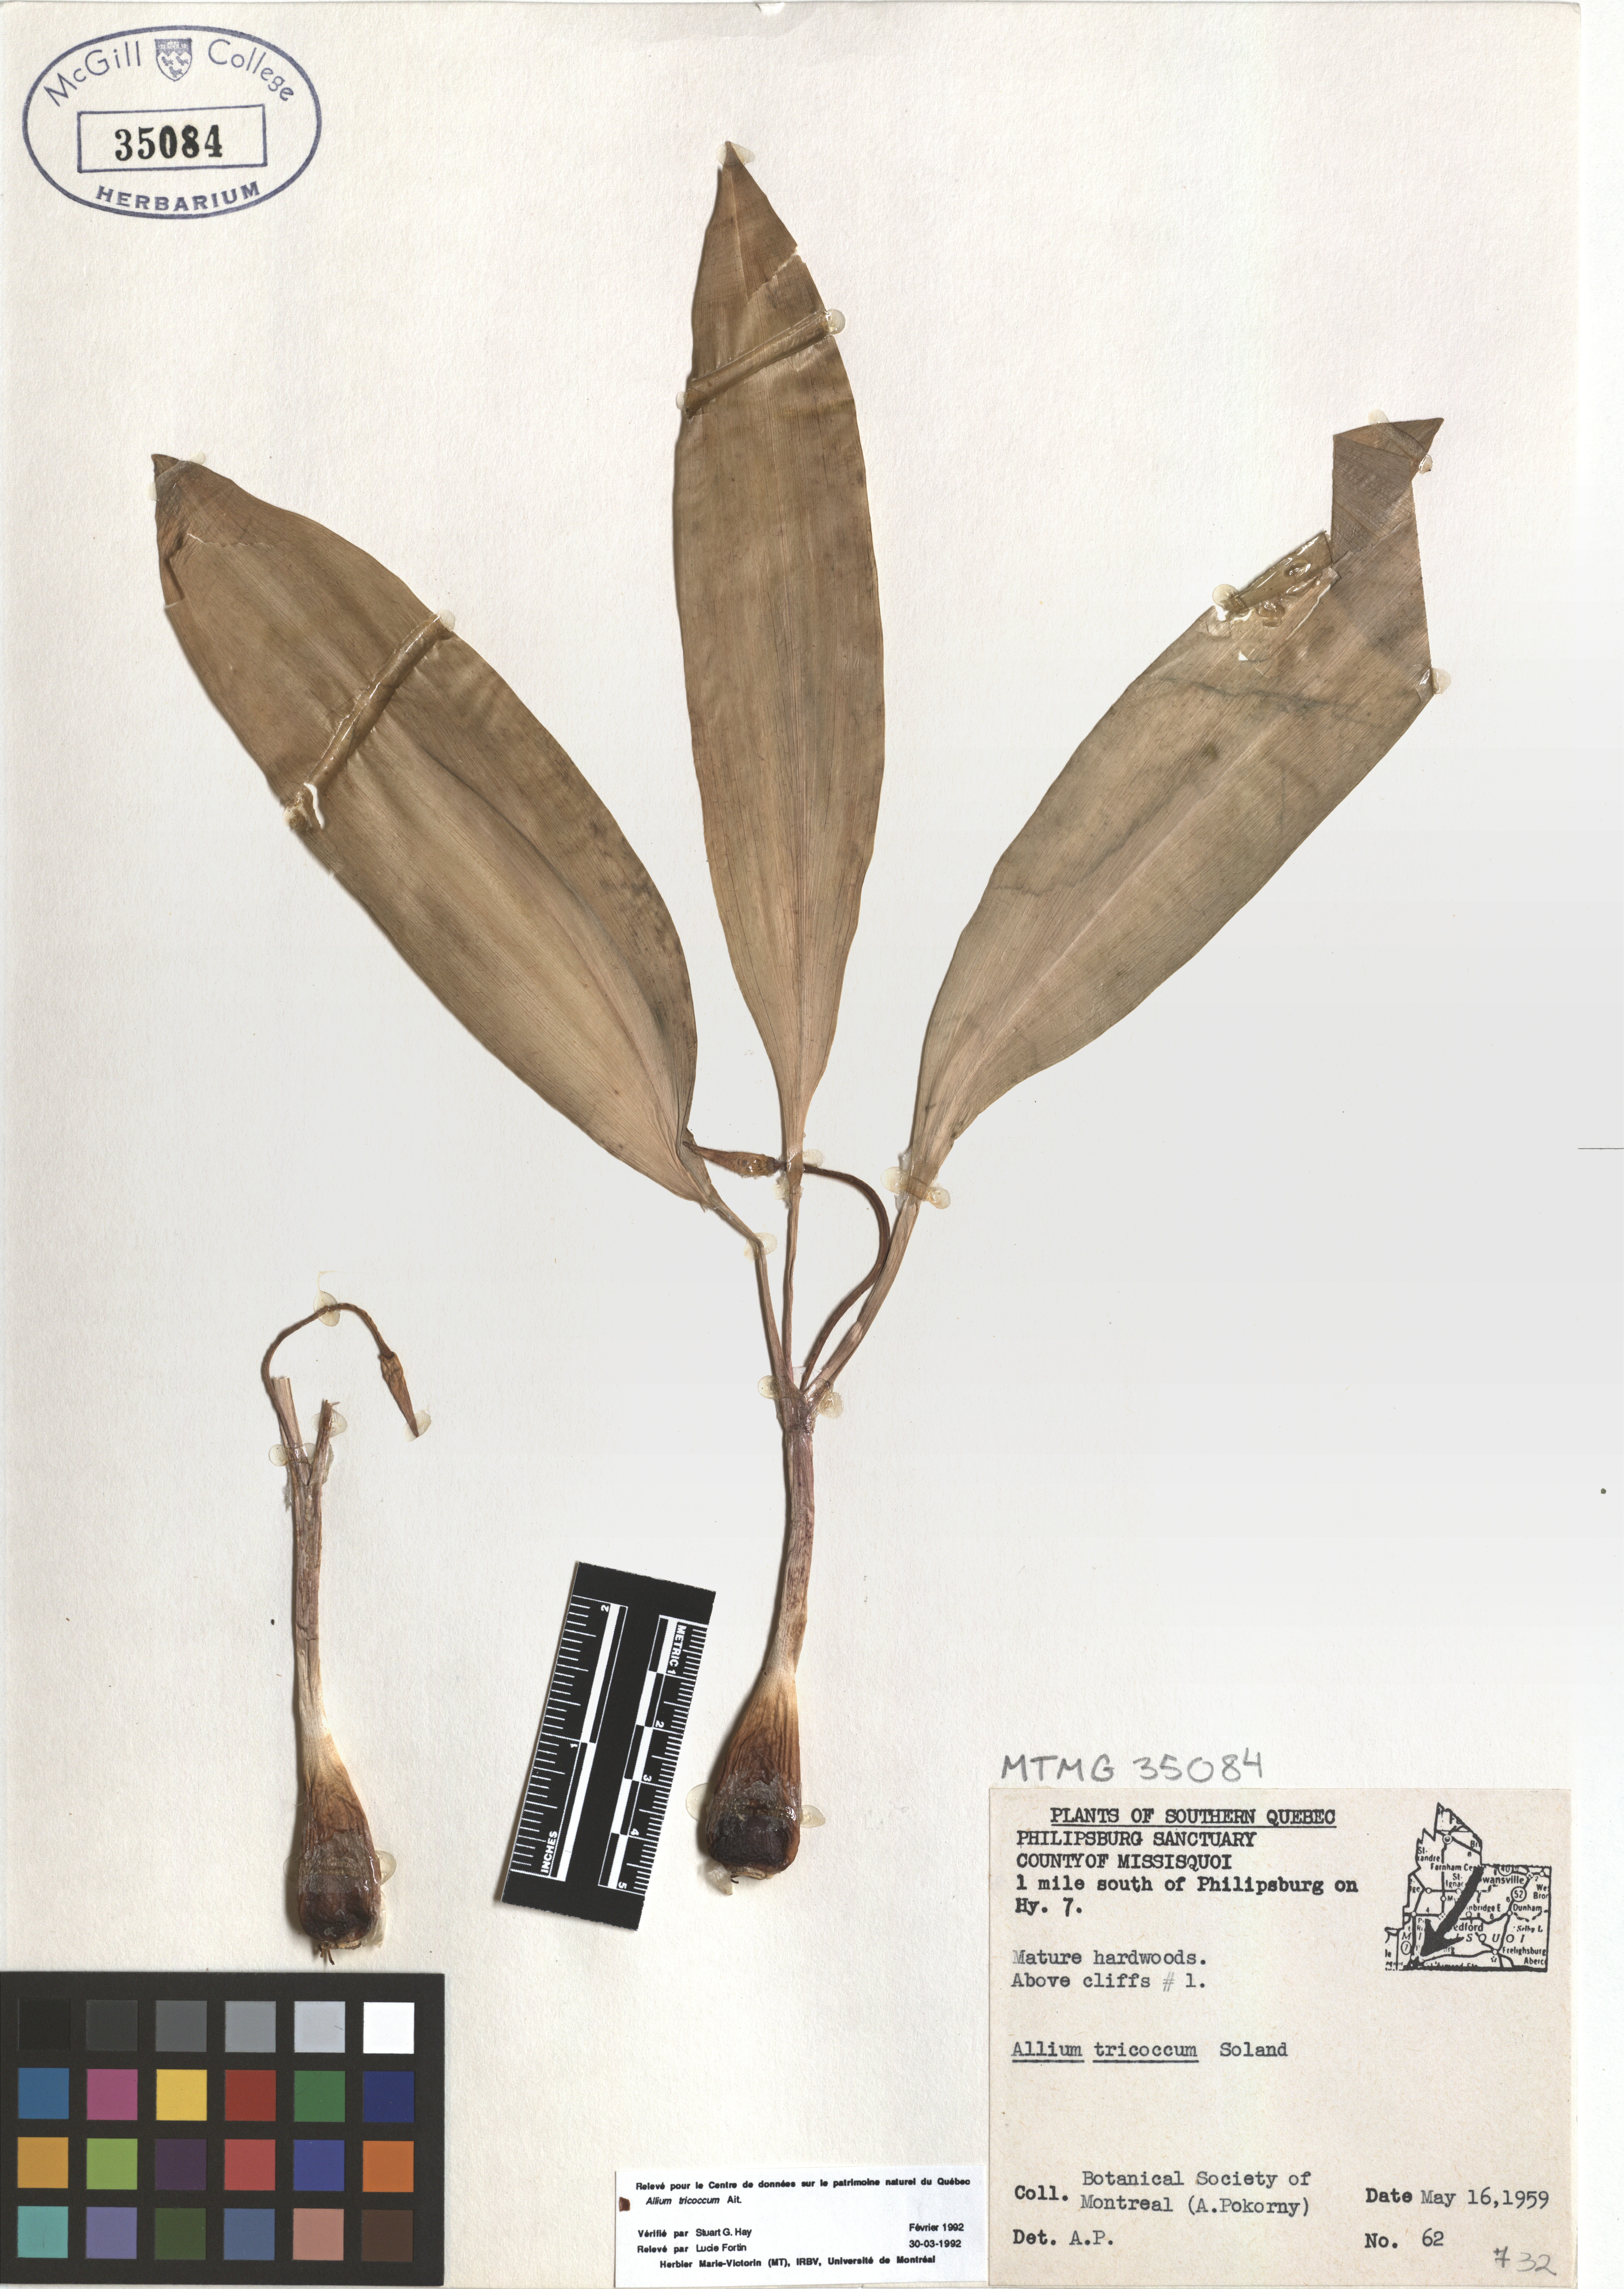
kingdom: Plantae
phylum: Tracheophyta
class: Liliopsida
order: Asparagales
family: Amaryllidaceae
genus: Allium
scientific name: Allium tricoccum
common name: Ramp
